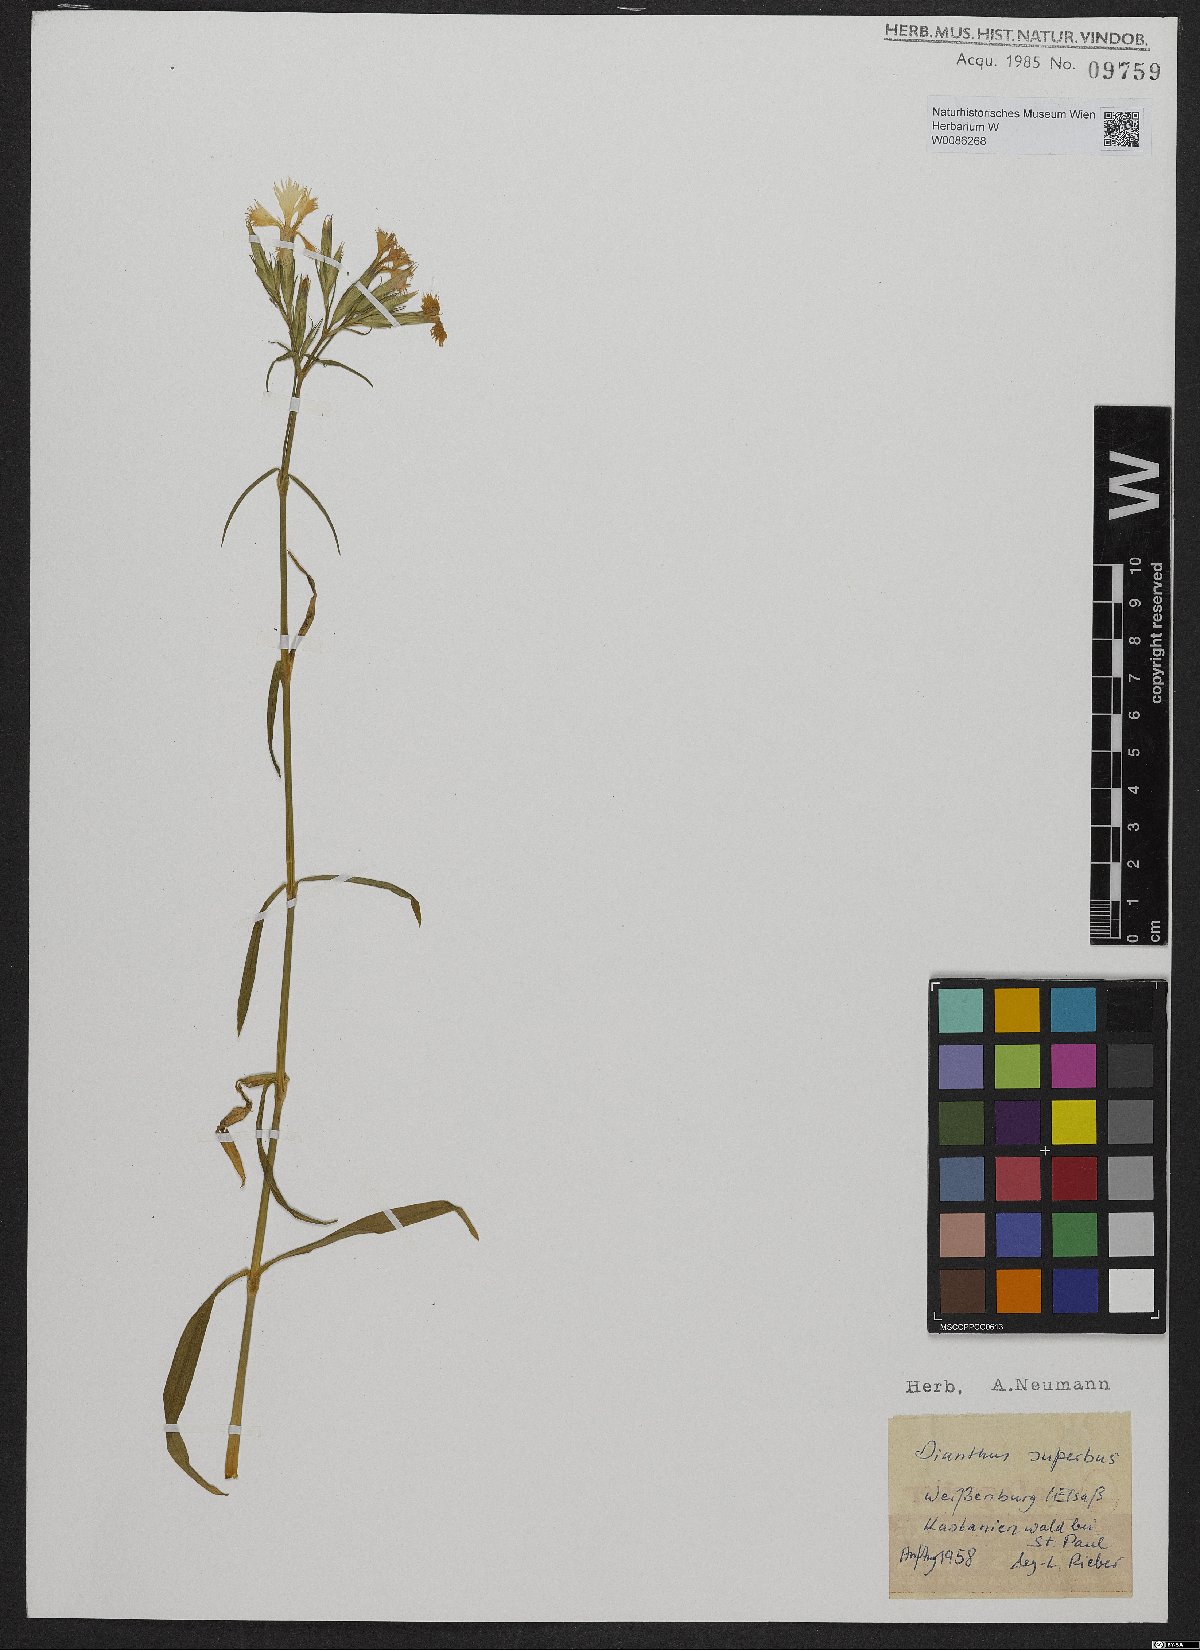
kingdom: Plantae
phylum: Tracheophyta
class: Magnoliopsida
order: Caryophyllales
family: Caryophyllaceae
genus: Dianthus
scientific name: Dianthus superbus
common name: Fringed pink
